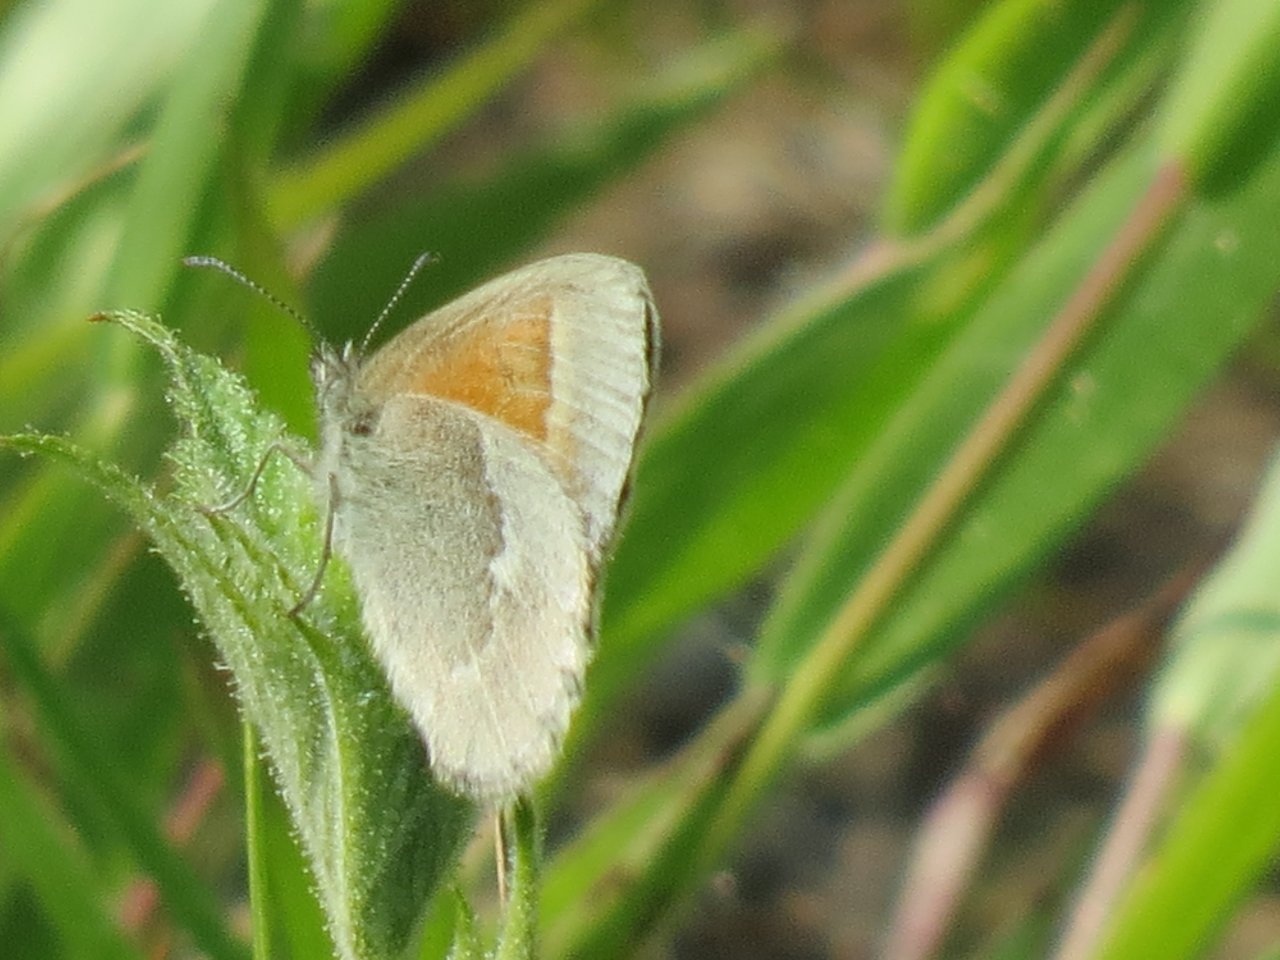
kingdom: Animalia
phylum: Arthropoda
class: Insecta
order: Lepidoptera
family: Nymphalidae
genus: Coenonympha
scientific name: Coenonympha tullia
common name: Large Heath
